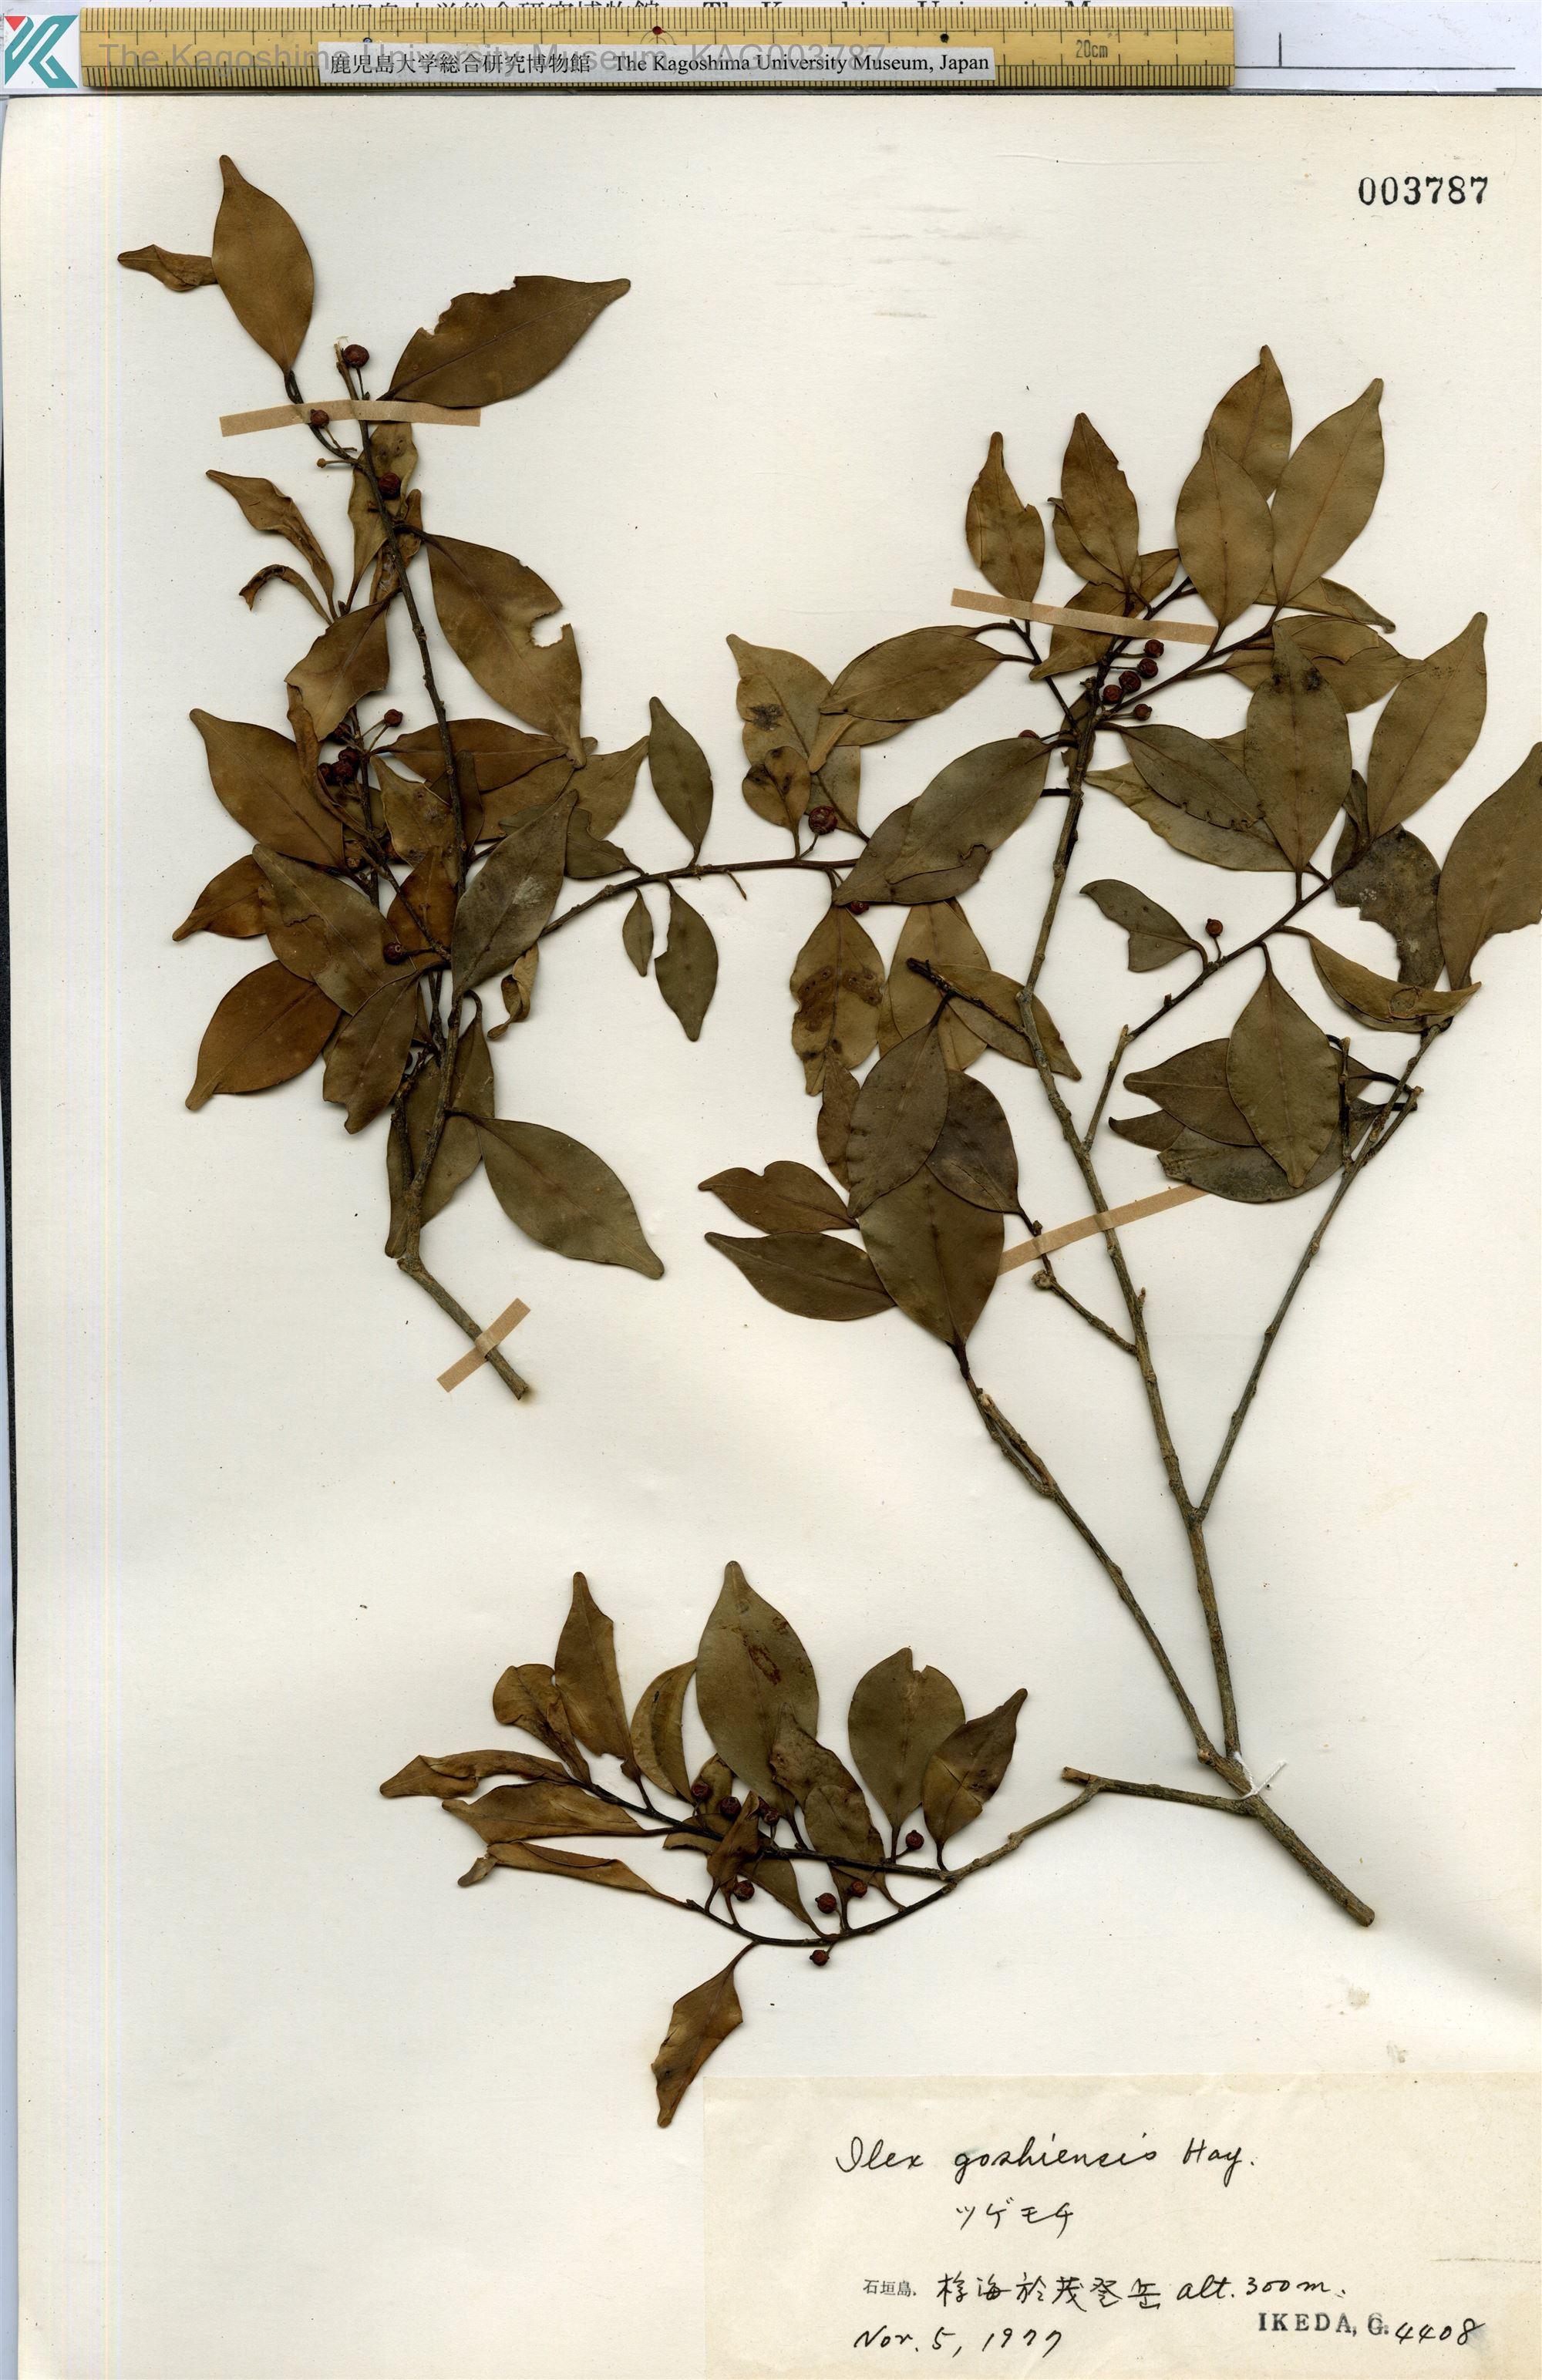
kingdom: Plantae
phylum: Tracheophyta
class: Magnoliopsida
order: Aquifoliales
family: Aquifoliaceae
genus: Ilex
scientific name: Ilex goshiensis
